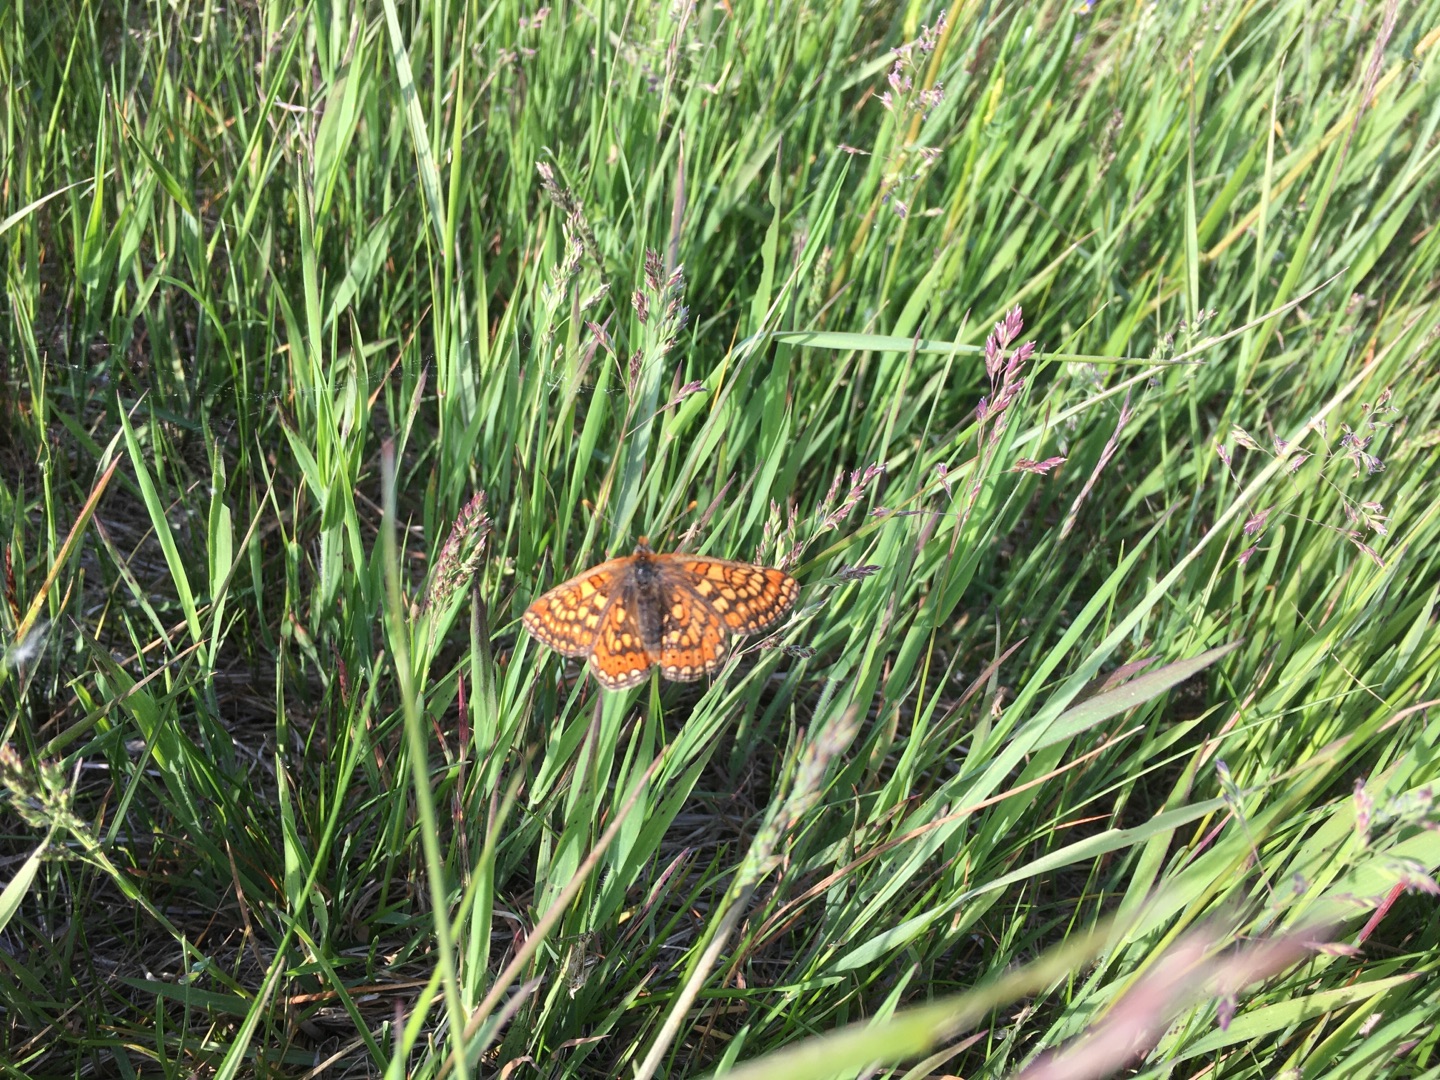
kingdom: Animalia
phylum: Arthropoda
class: Insecta
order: Lepidoptera
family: Nymphalidae
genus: Euphydryas
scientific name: Euphydryas aurinia
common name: Hedepletvinge
